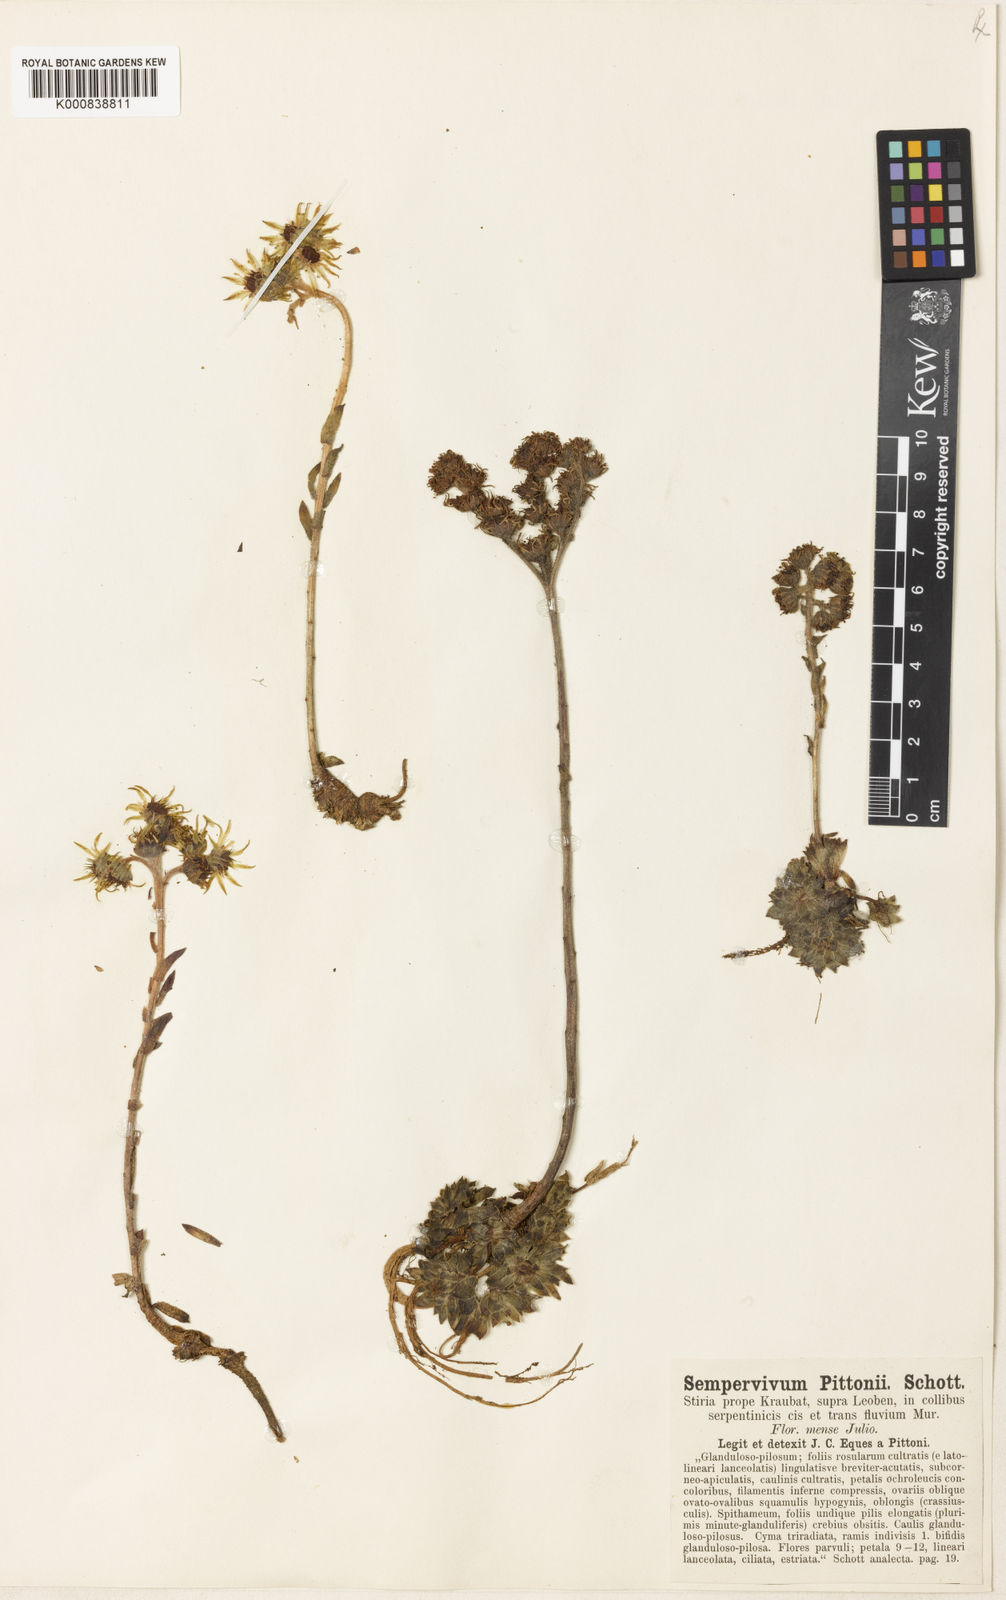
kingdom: Plantae
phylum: Tracheophyta
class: Magnoliopsida
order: Saxifragales
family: Crassulaceae
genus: Sempervivum
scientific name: Sempervivum pittonii
